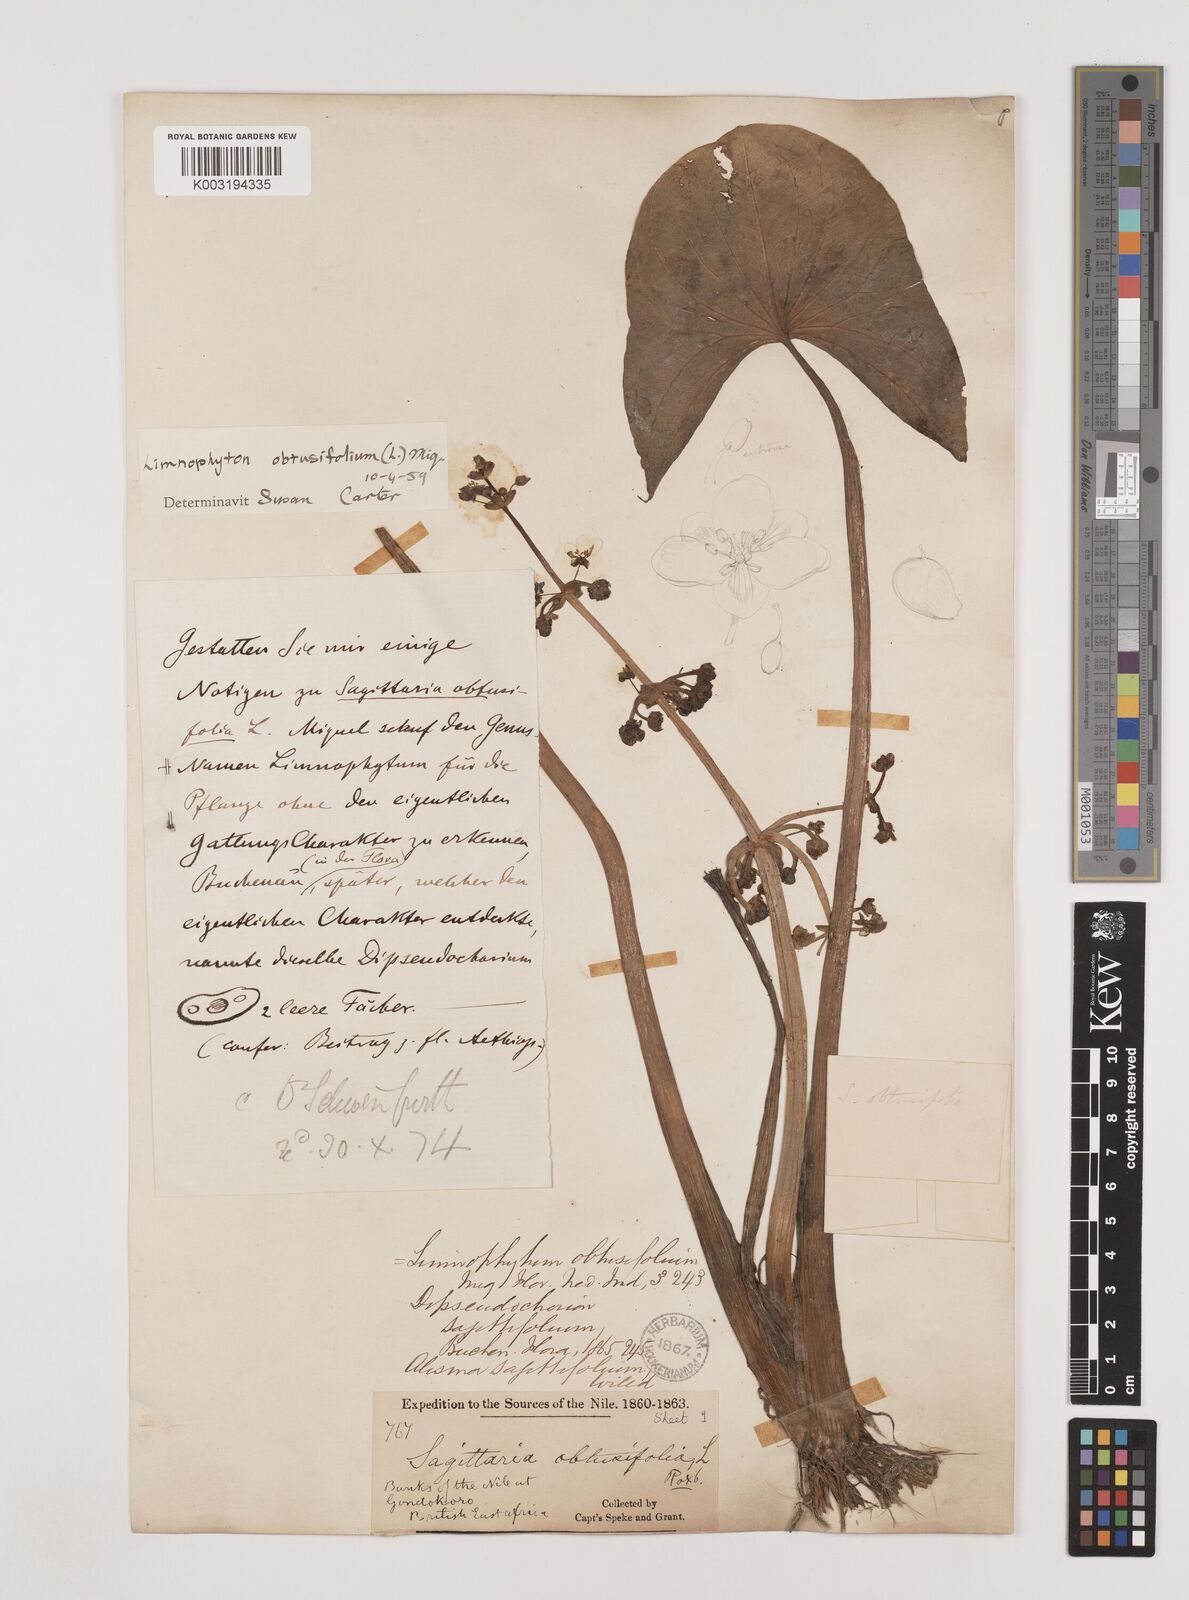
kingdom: Plantae
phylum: Tracheophyta
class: Liliopsida
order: Alismatales
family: Alismataceae
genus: Limnophyton
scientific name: Limnophyton obtusifolium
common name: Arrow head
